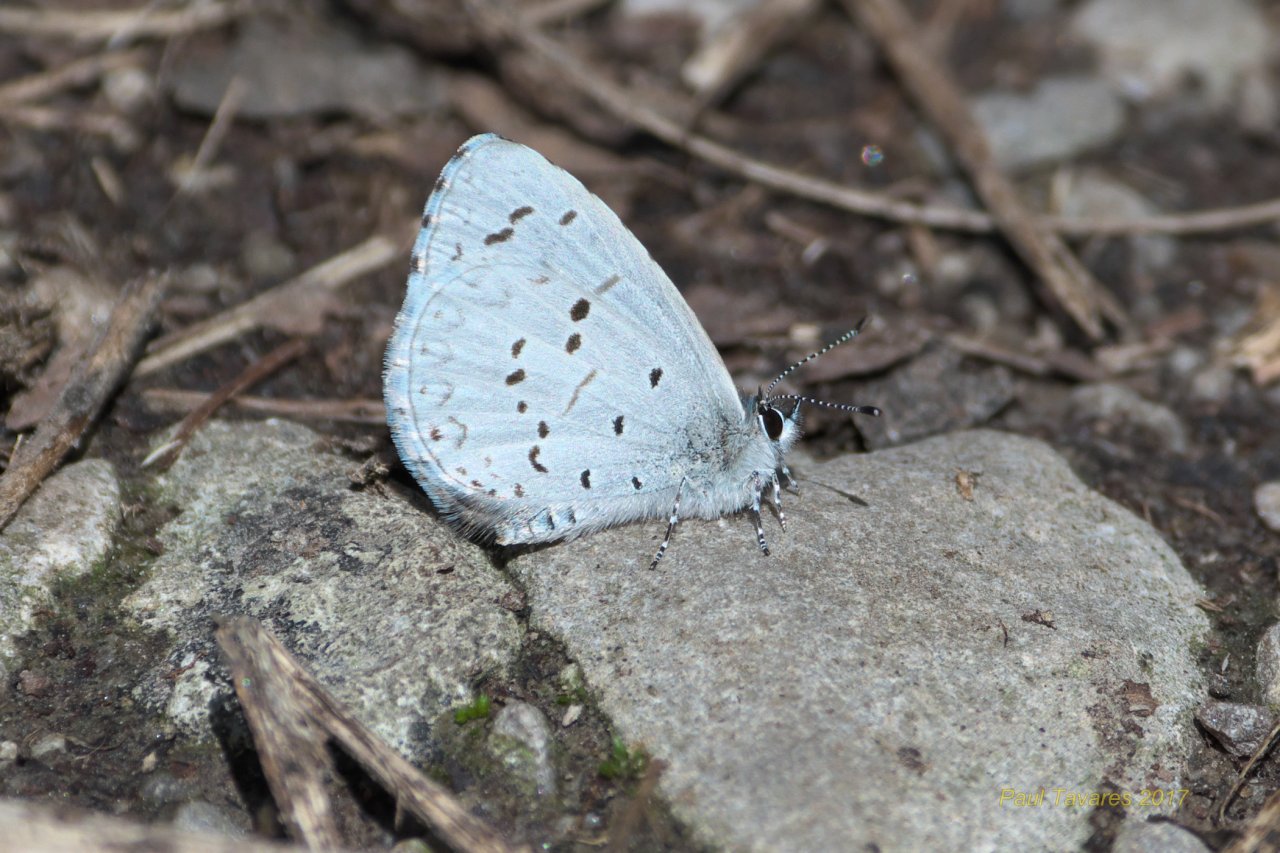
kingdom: Animalia
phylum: Arthropoda
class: Insecta
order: Lepidoptera
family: Lycaenidae
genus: Celastrina
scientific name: Celastrina
